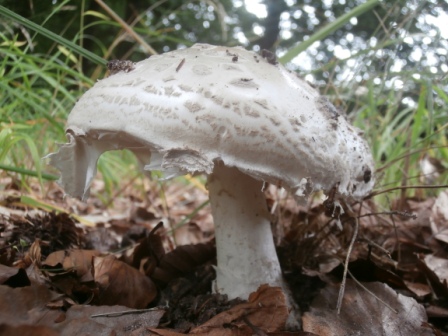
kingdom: Fungi
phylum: Basidiomycota
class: Agaricomycetes
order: Agaricales
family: Amanitaceae
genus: Amanita
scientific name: Amanita
